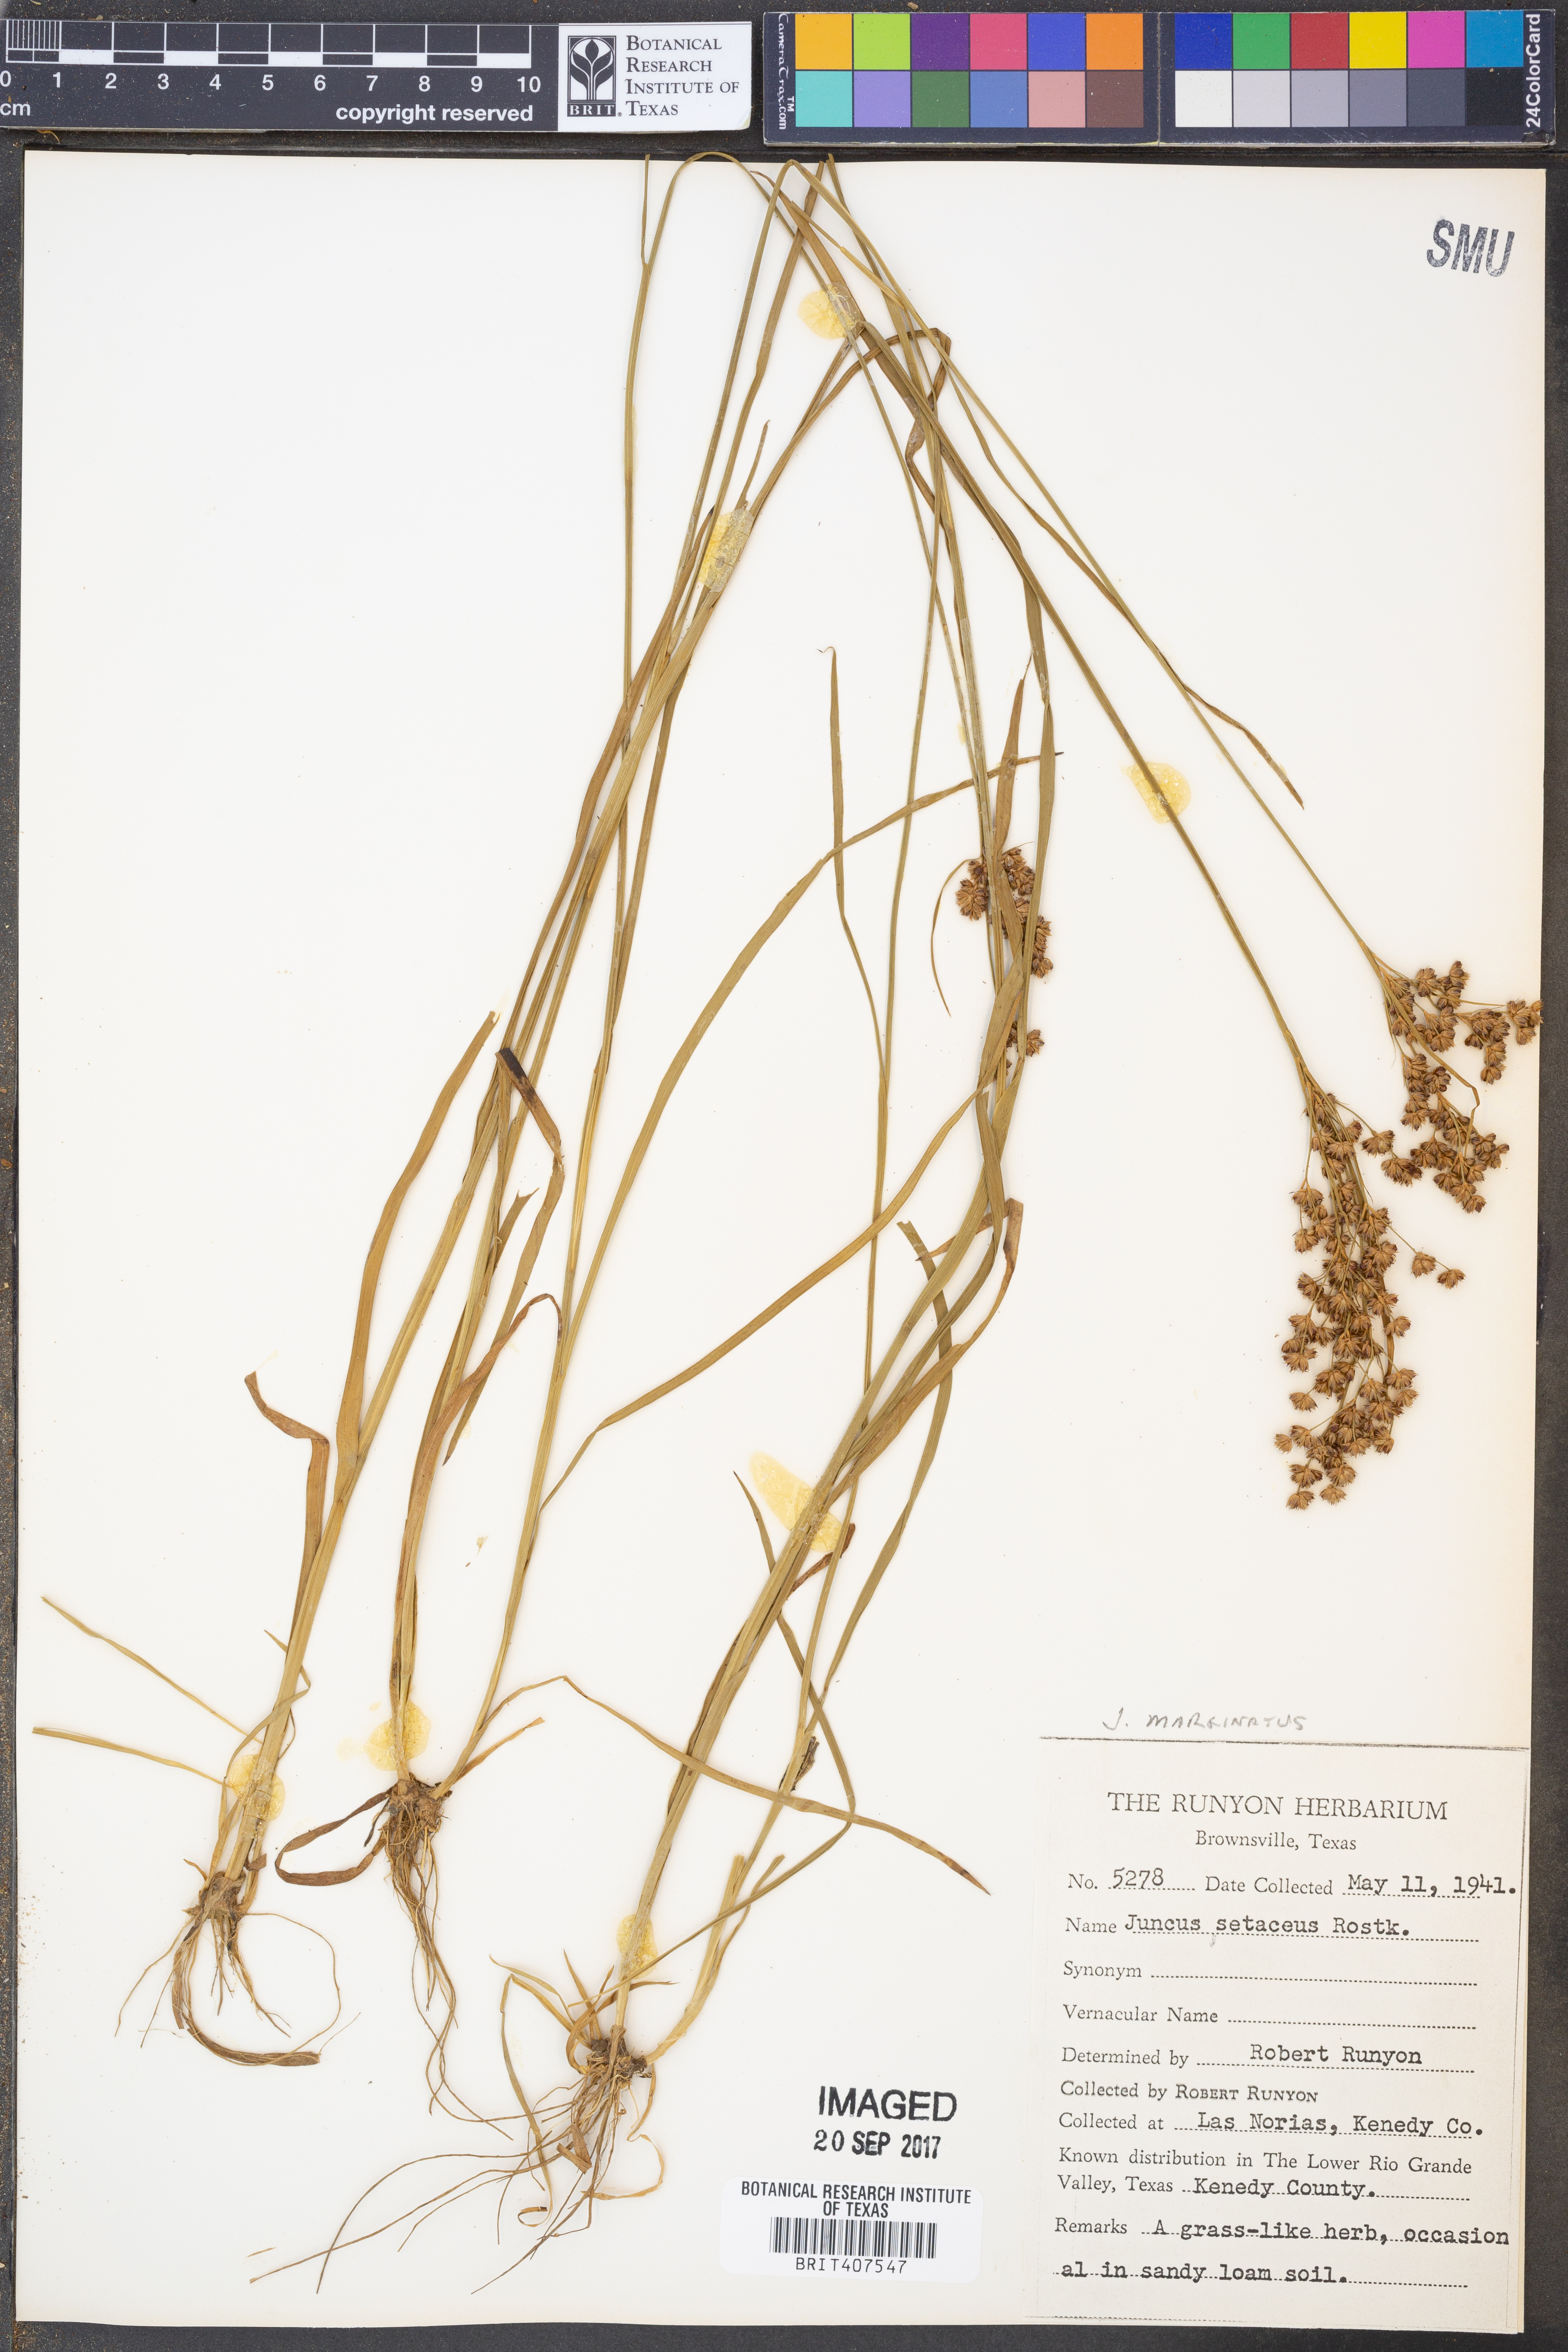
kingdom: Plantae
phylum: Tracheophyta
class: Liliopsida
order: Poales
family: Juncaceae
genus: Juncus
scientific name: Juncus bulbosus
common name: Bulbous rush
